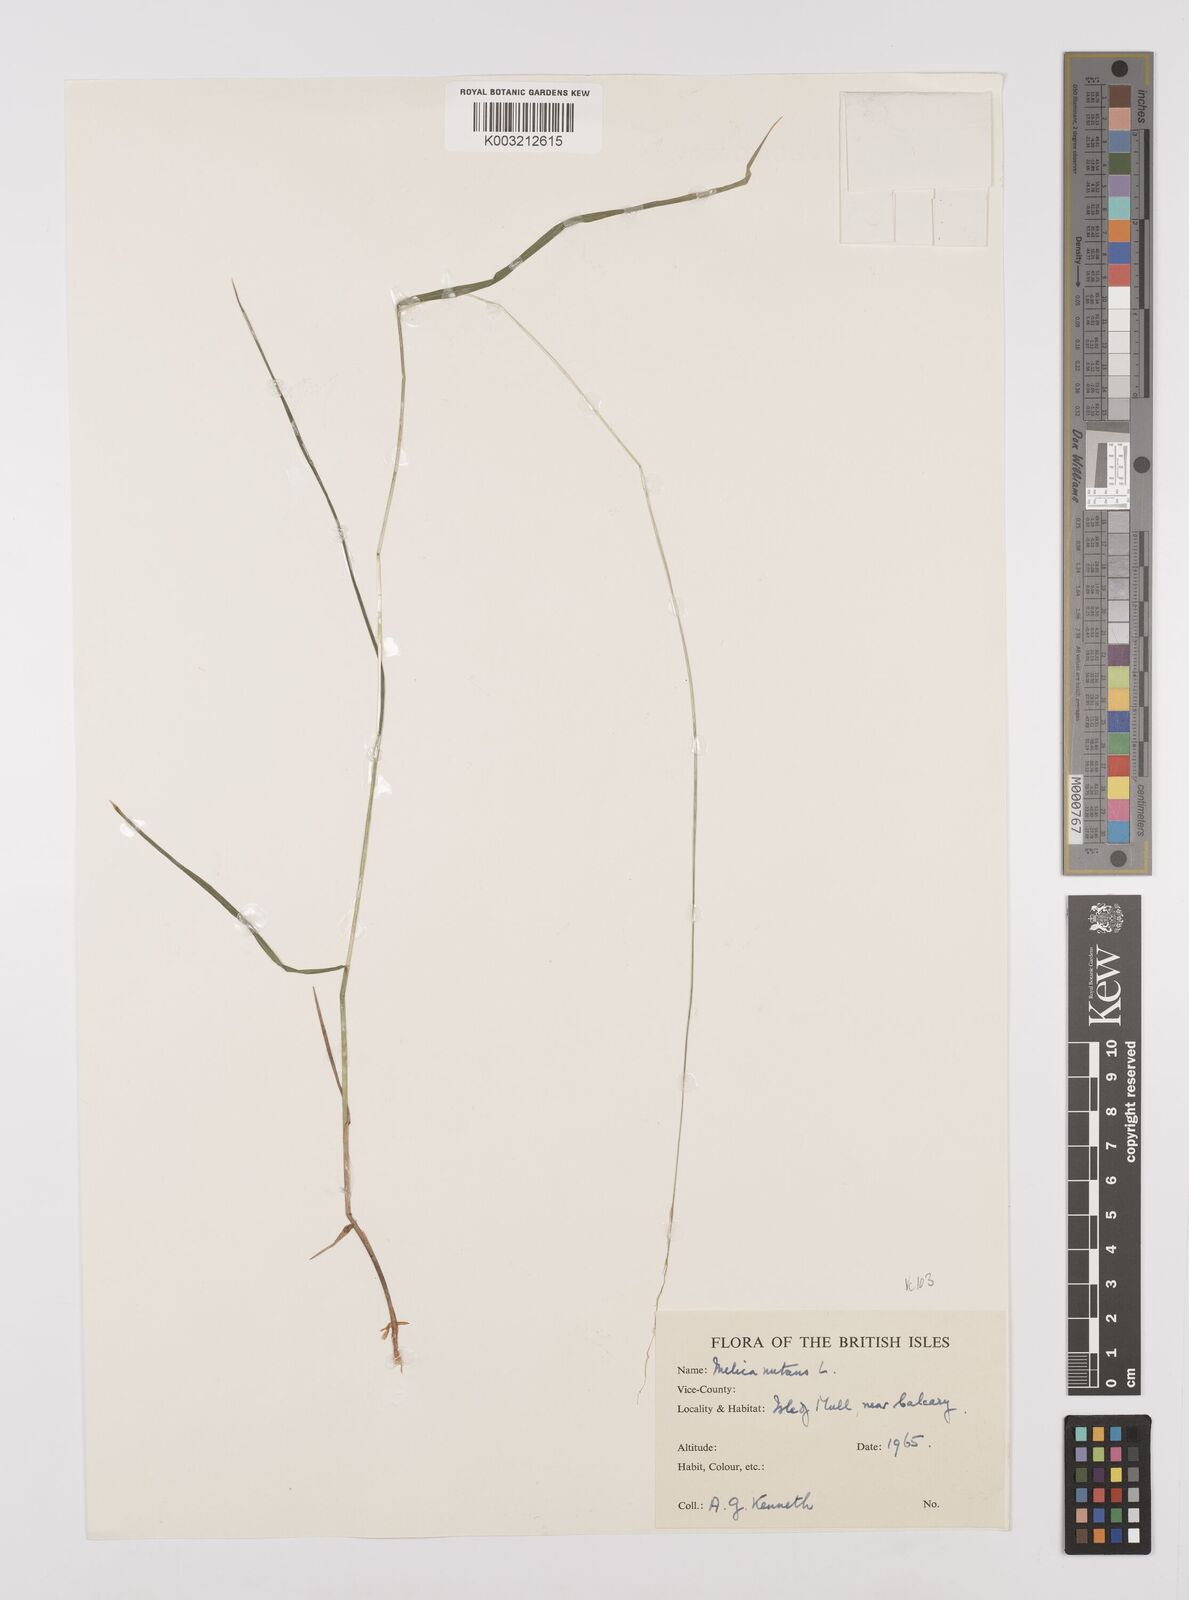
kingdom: Plantae
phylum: Tracheophyta
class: Liliopsida
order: Poales
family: Poaceae
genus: Melica
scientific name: Melica
